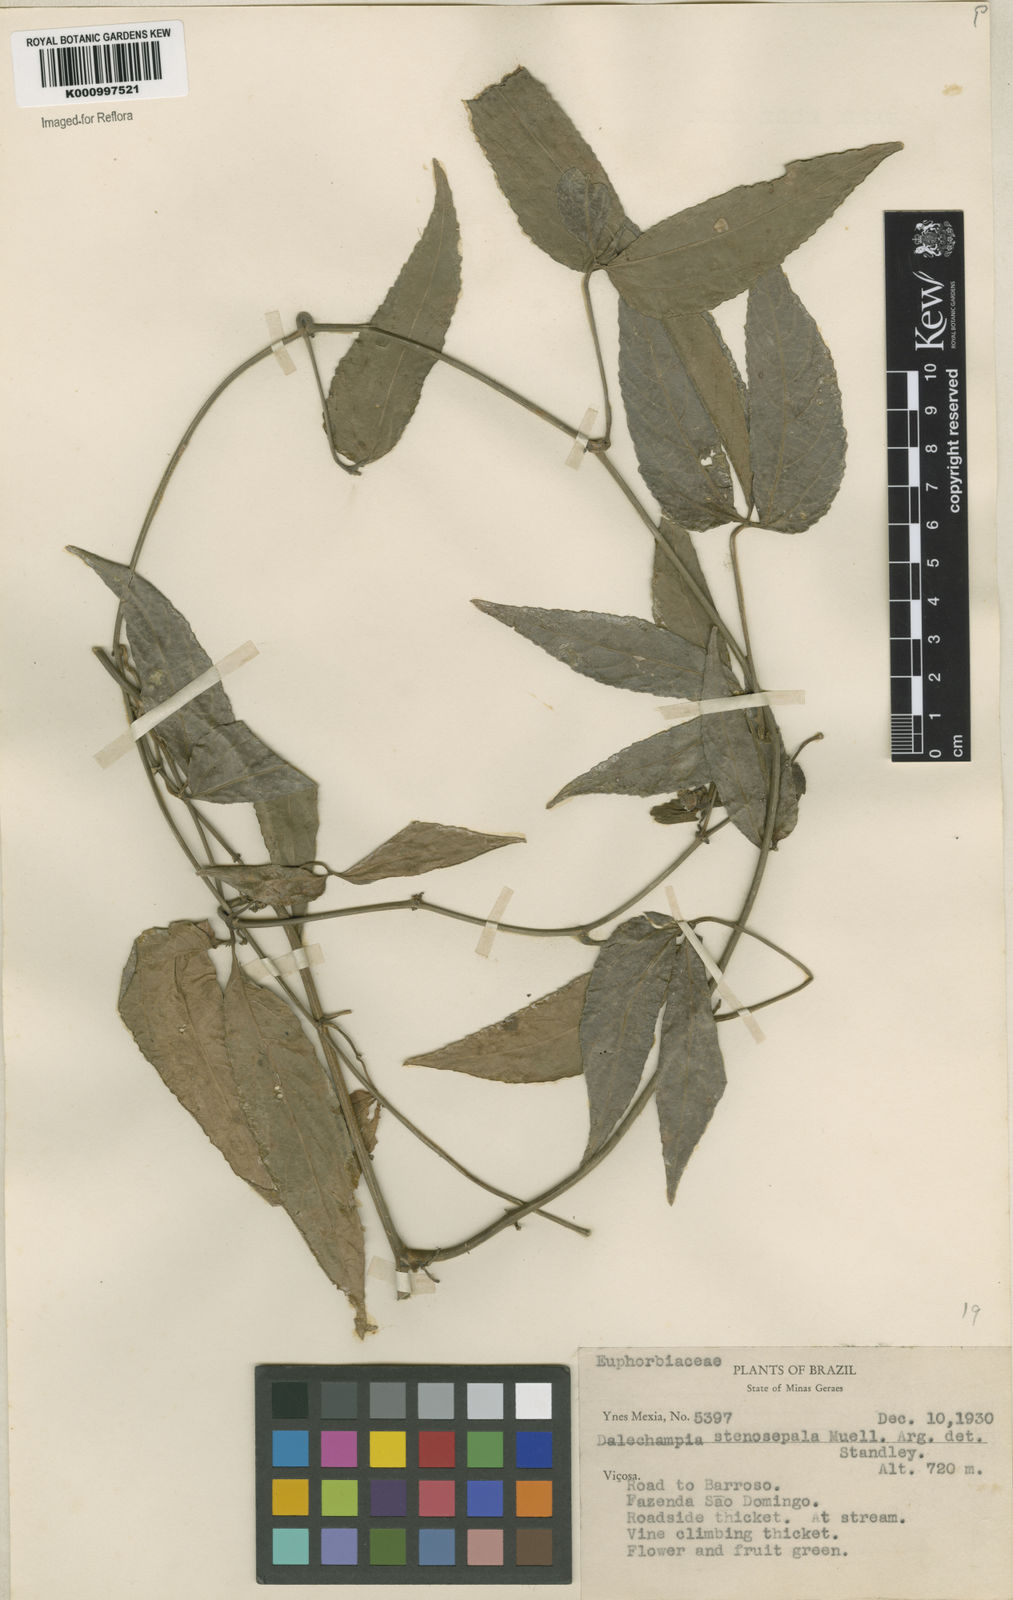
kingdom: Plantae
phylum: Tracheophyta
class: Magnoliopsida
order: Malpighiales
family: Euphorbiaceae
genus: Dalechampia
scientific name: Dalechampia
